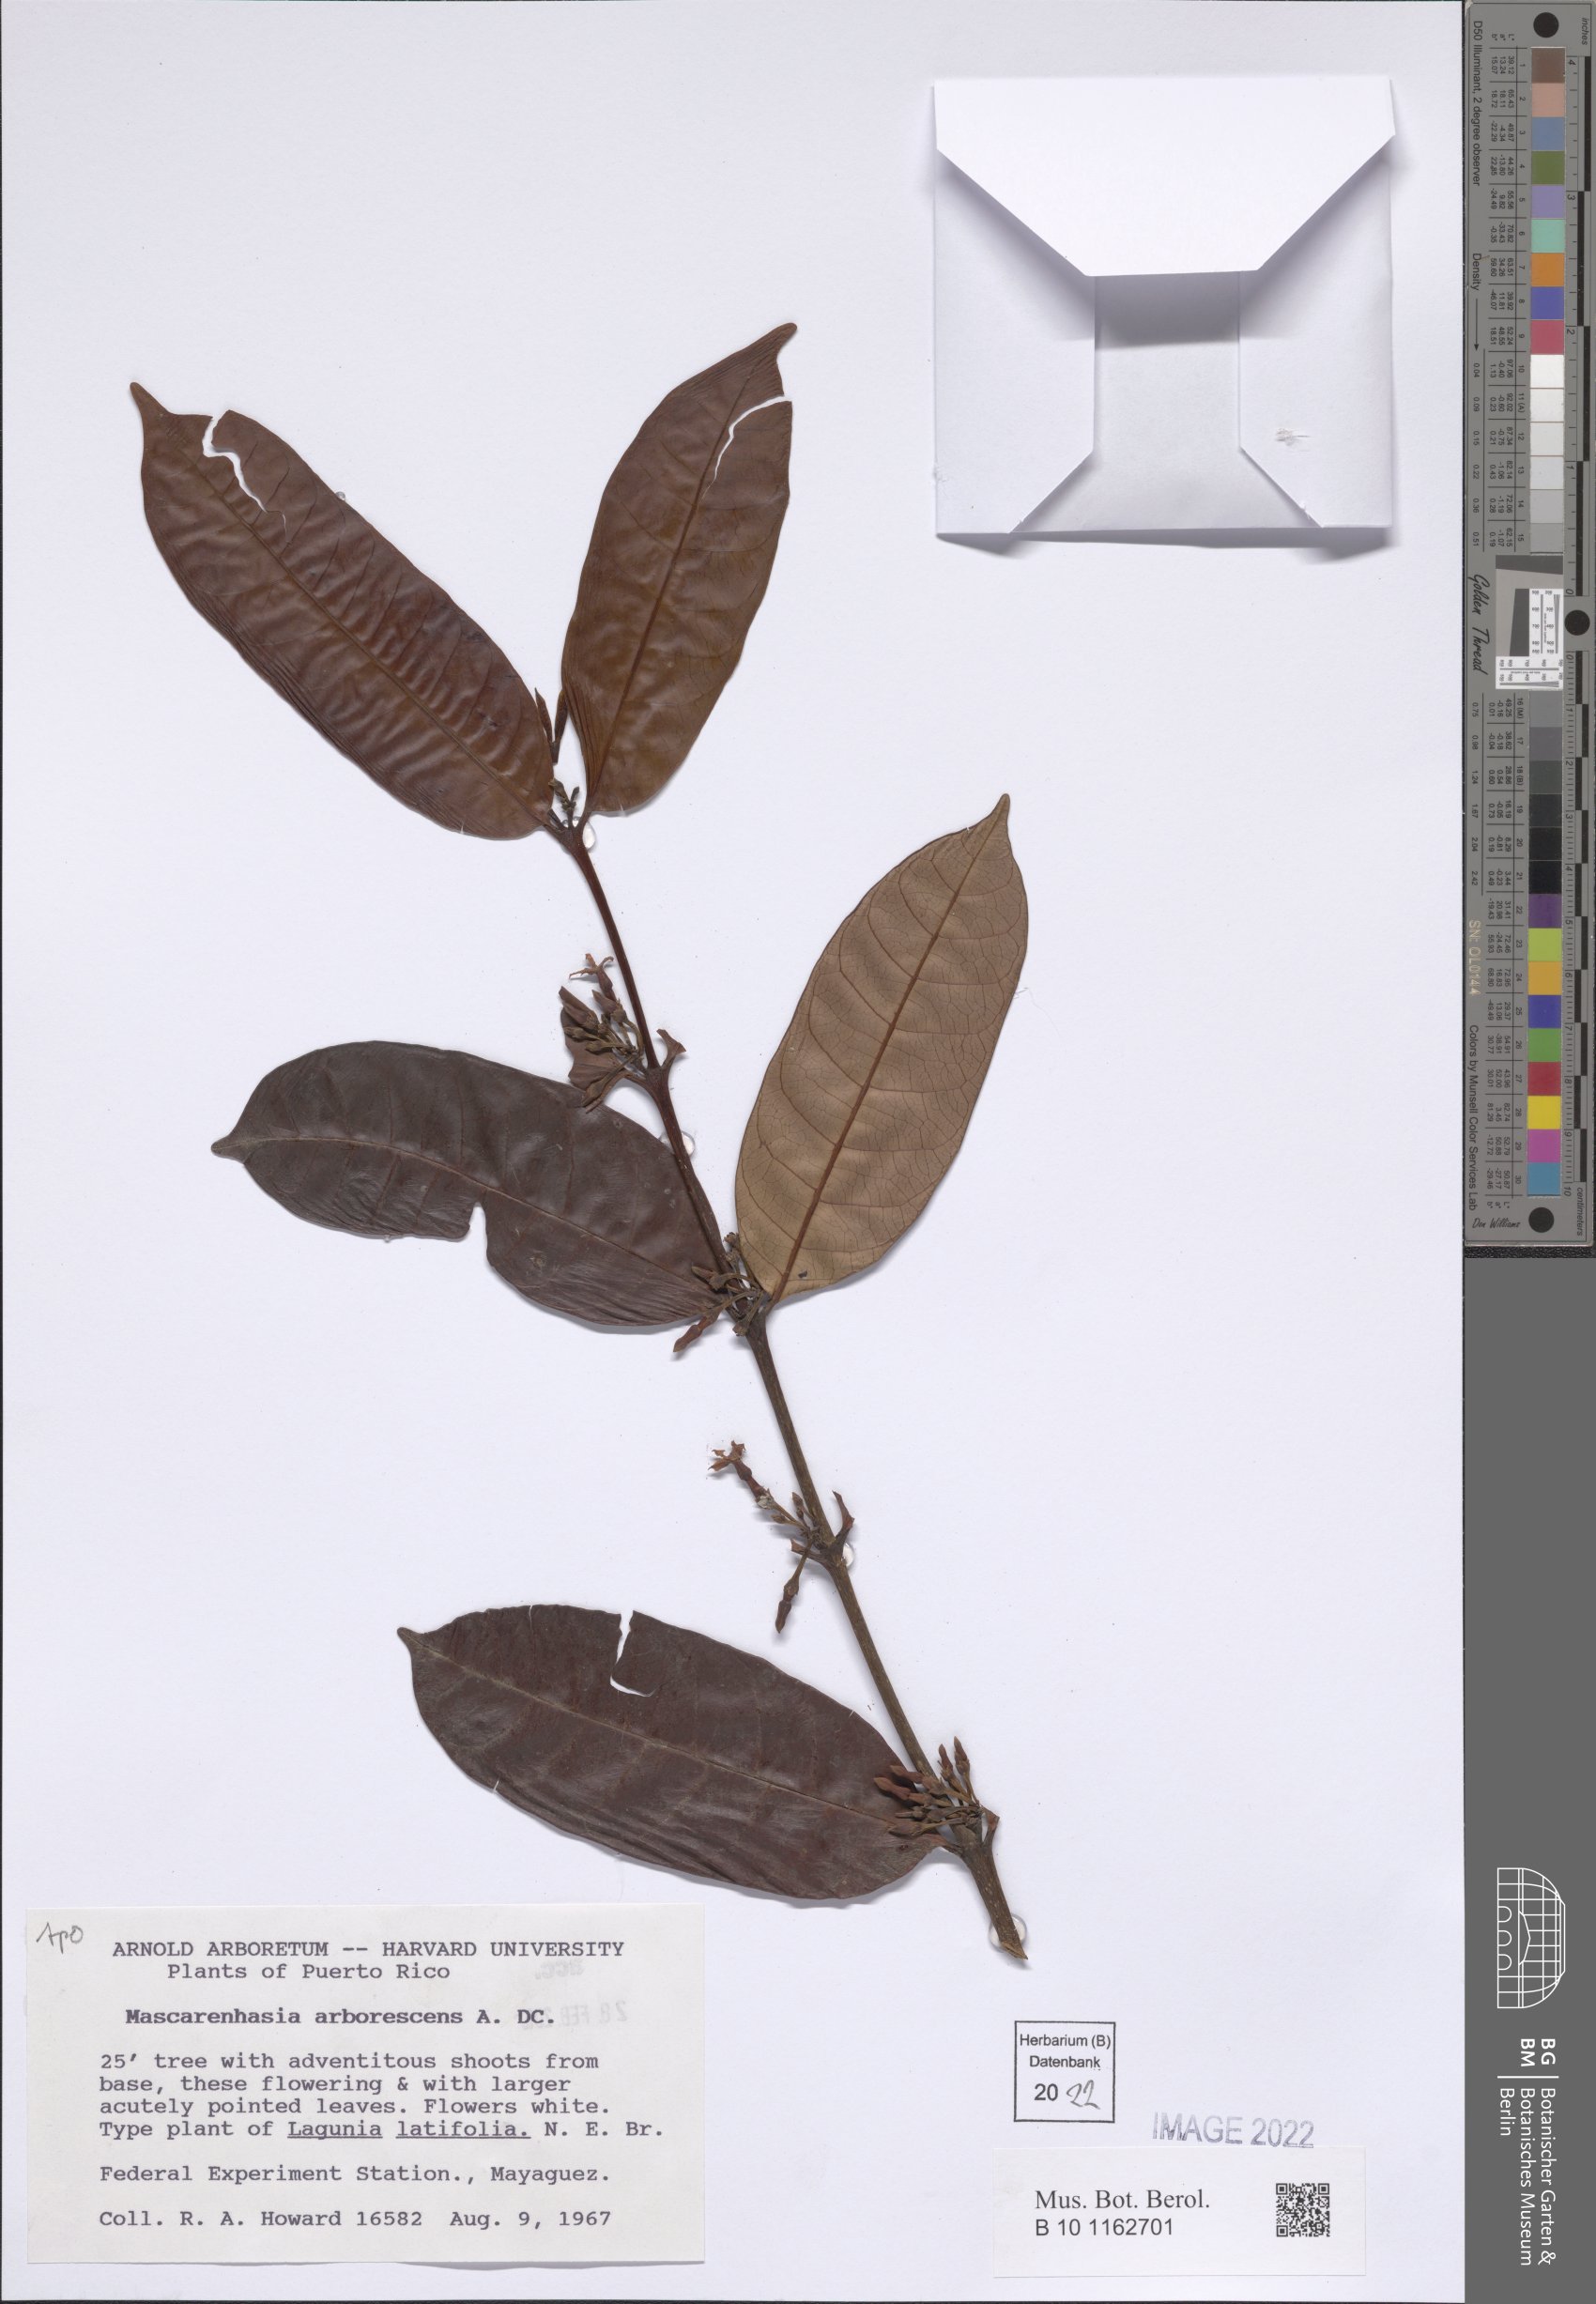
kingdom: Plantae
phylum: Tracheophyta
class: Magnoliopsida
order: Gentianales
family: Apocynaceae
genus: Mascarenhasia
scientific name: Mascarenhasia arborescens
